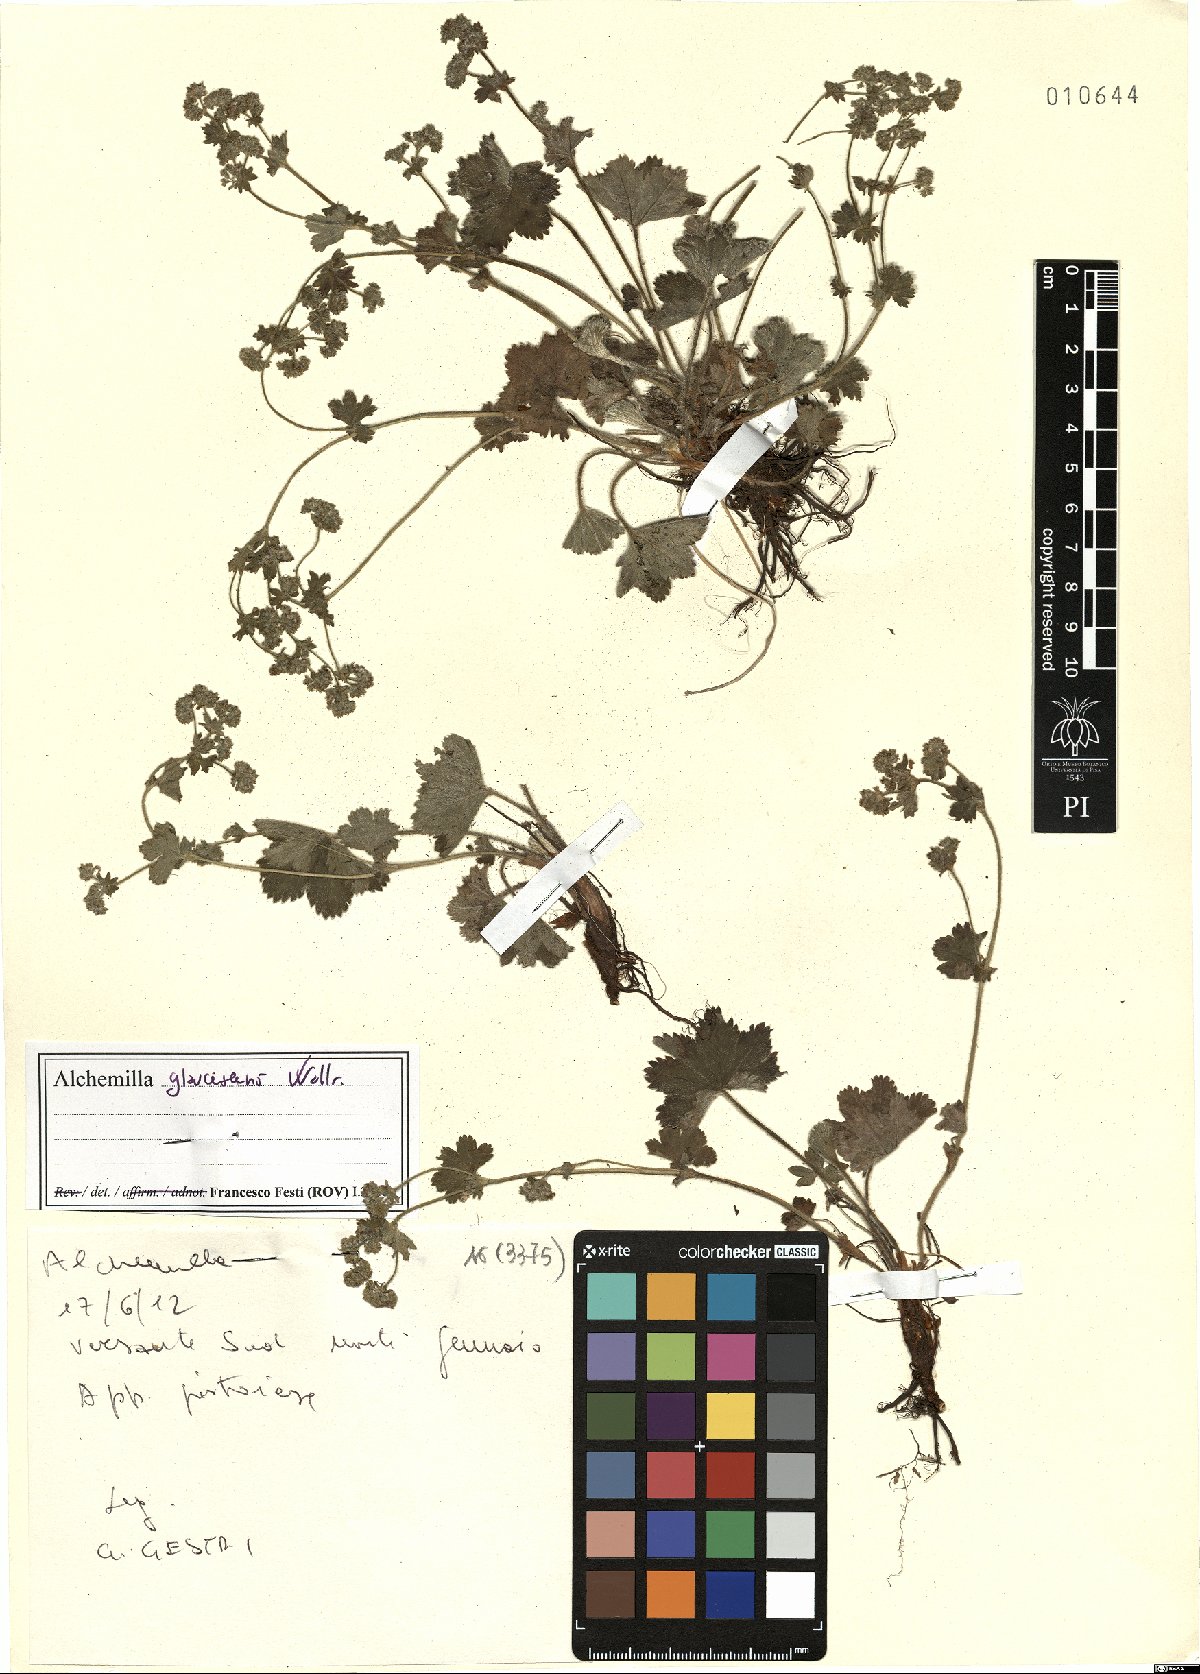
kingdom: Plantae
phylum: Tracheophyta
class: Magnoliopsida
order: Rosales
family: Rosaceae
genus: Alchemilla
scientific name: Alchemilla glaucescens
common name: Silky lady's mantle
